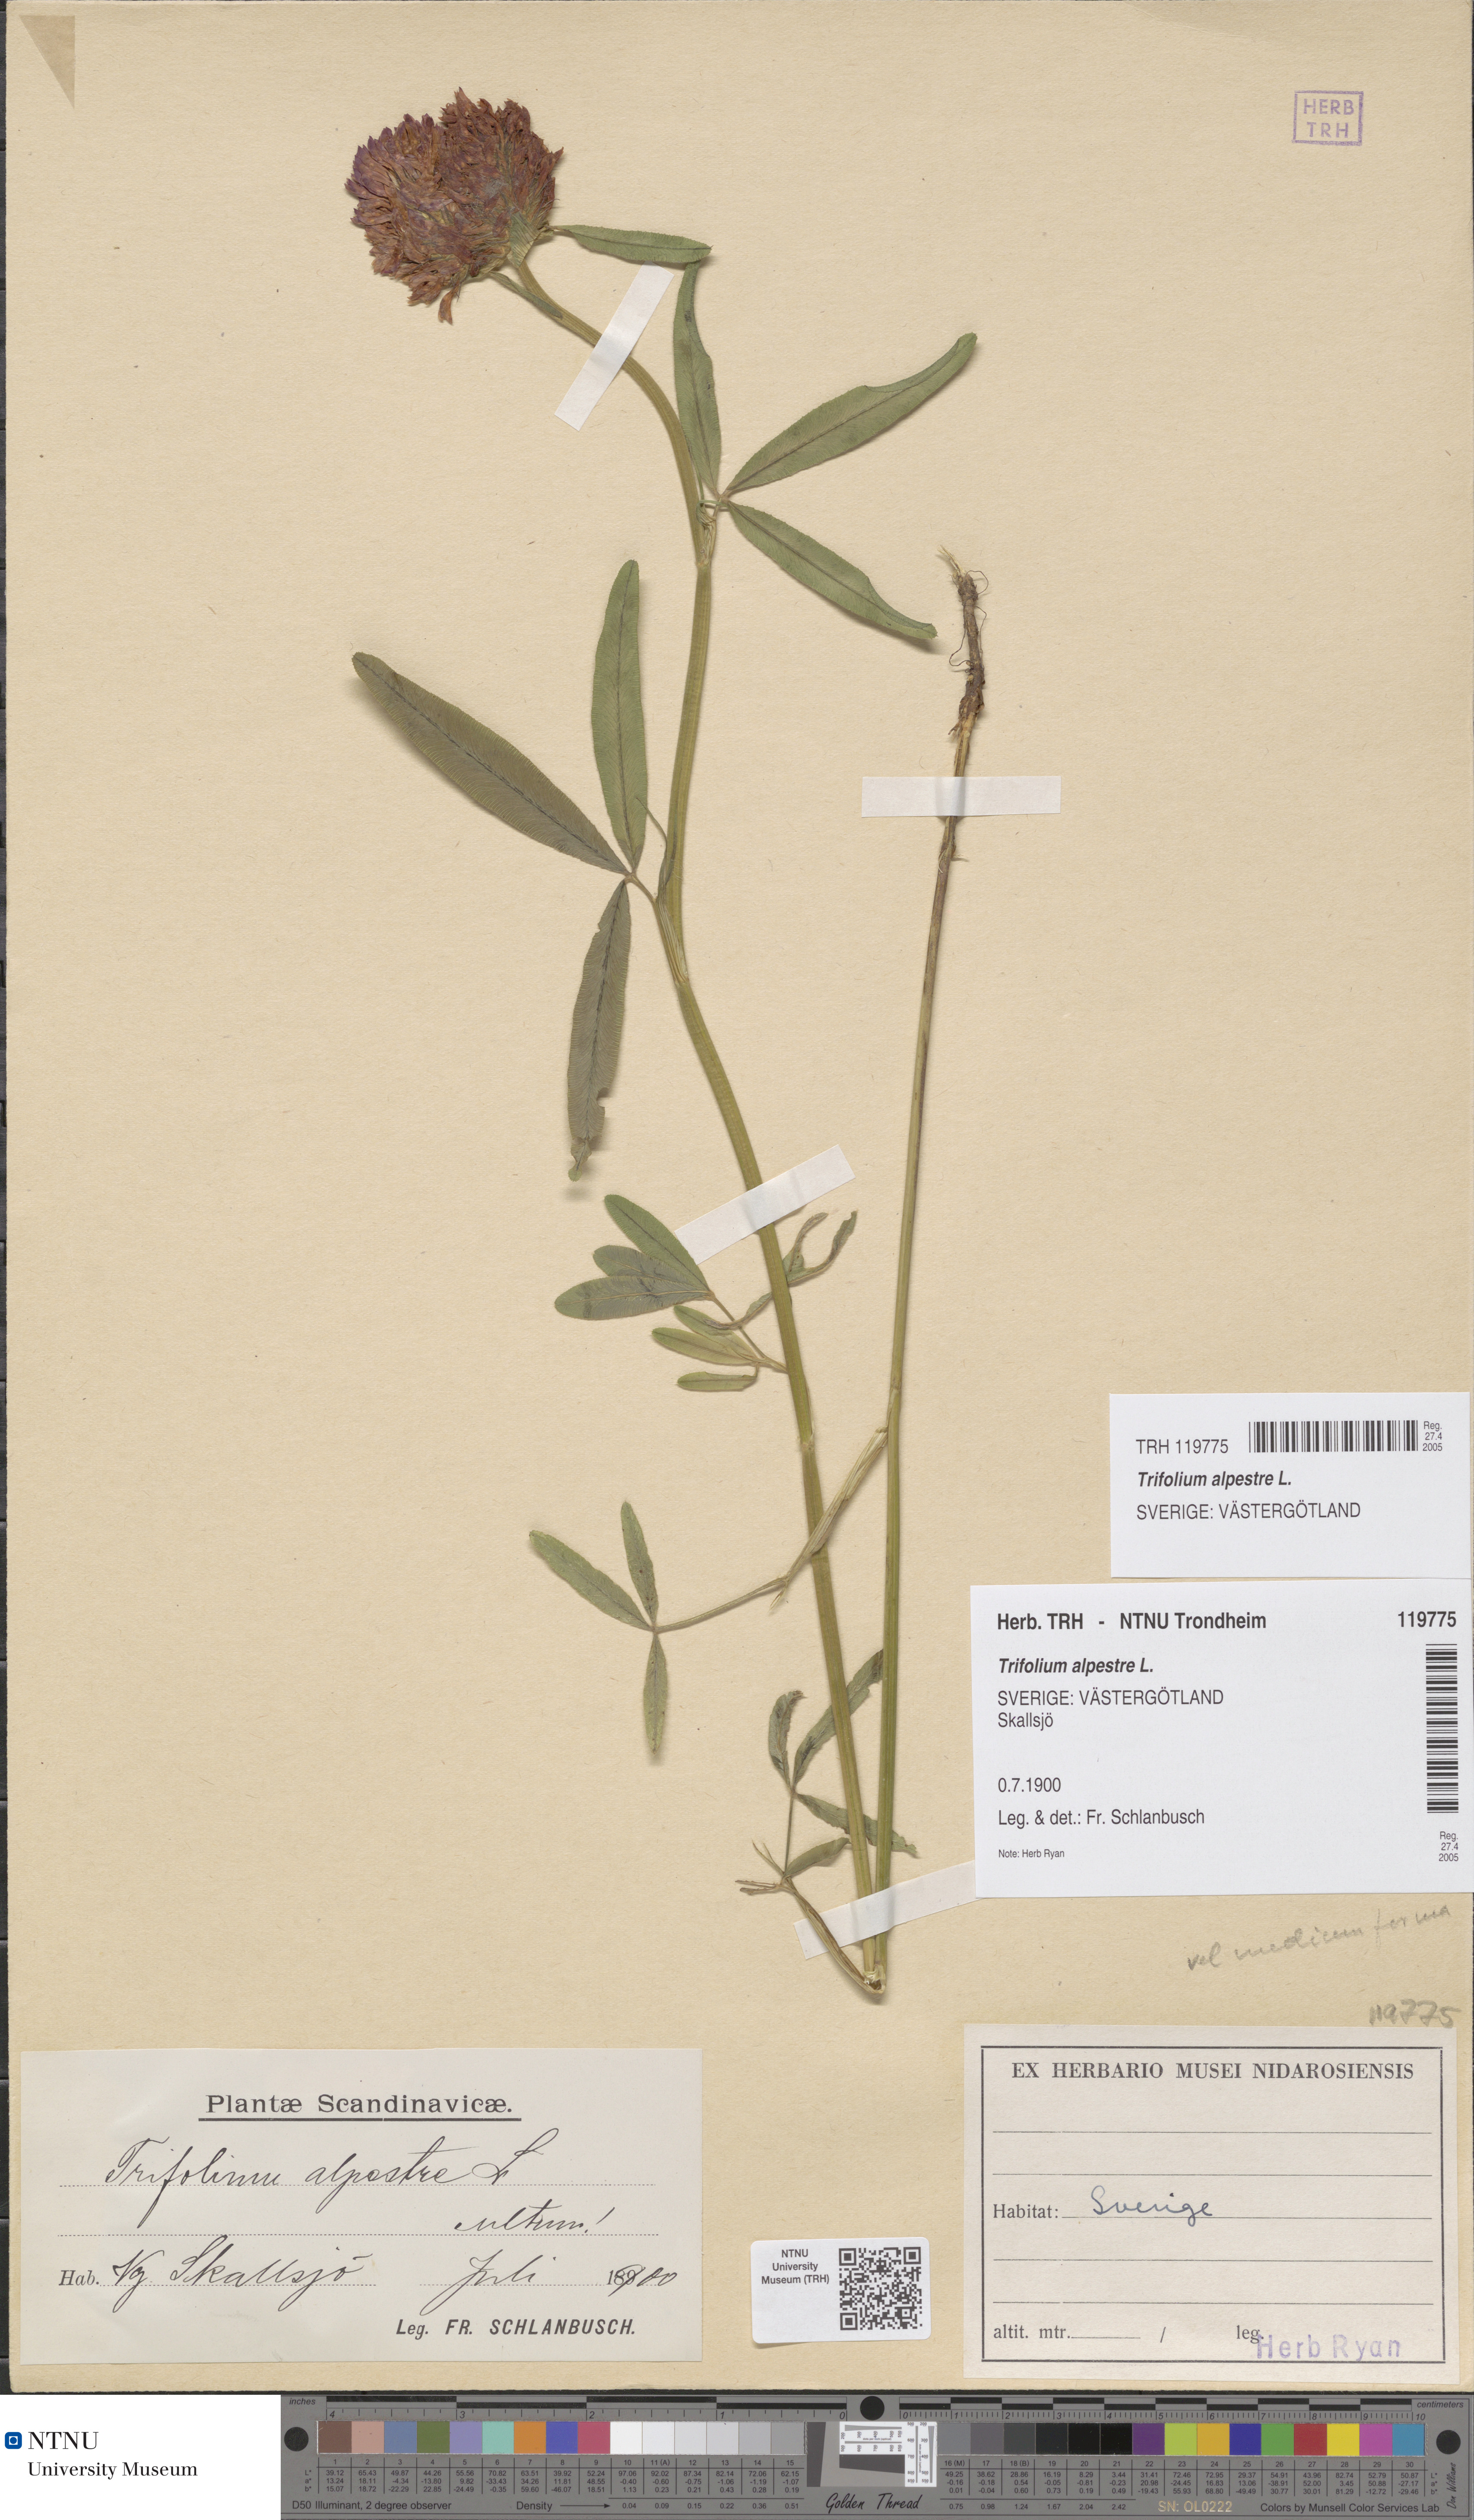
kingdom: Plantae
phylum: Tracheophyta
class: Magnoliopsida
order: Fabales
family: Fabaceae
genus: Trifolium
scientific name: Trifolium alpestre
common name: Owl-head clover
